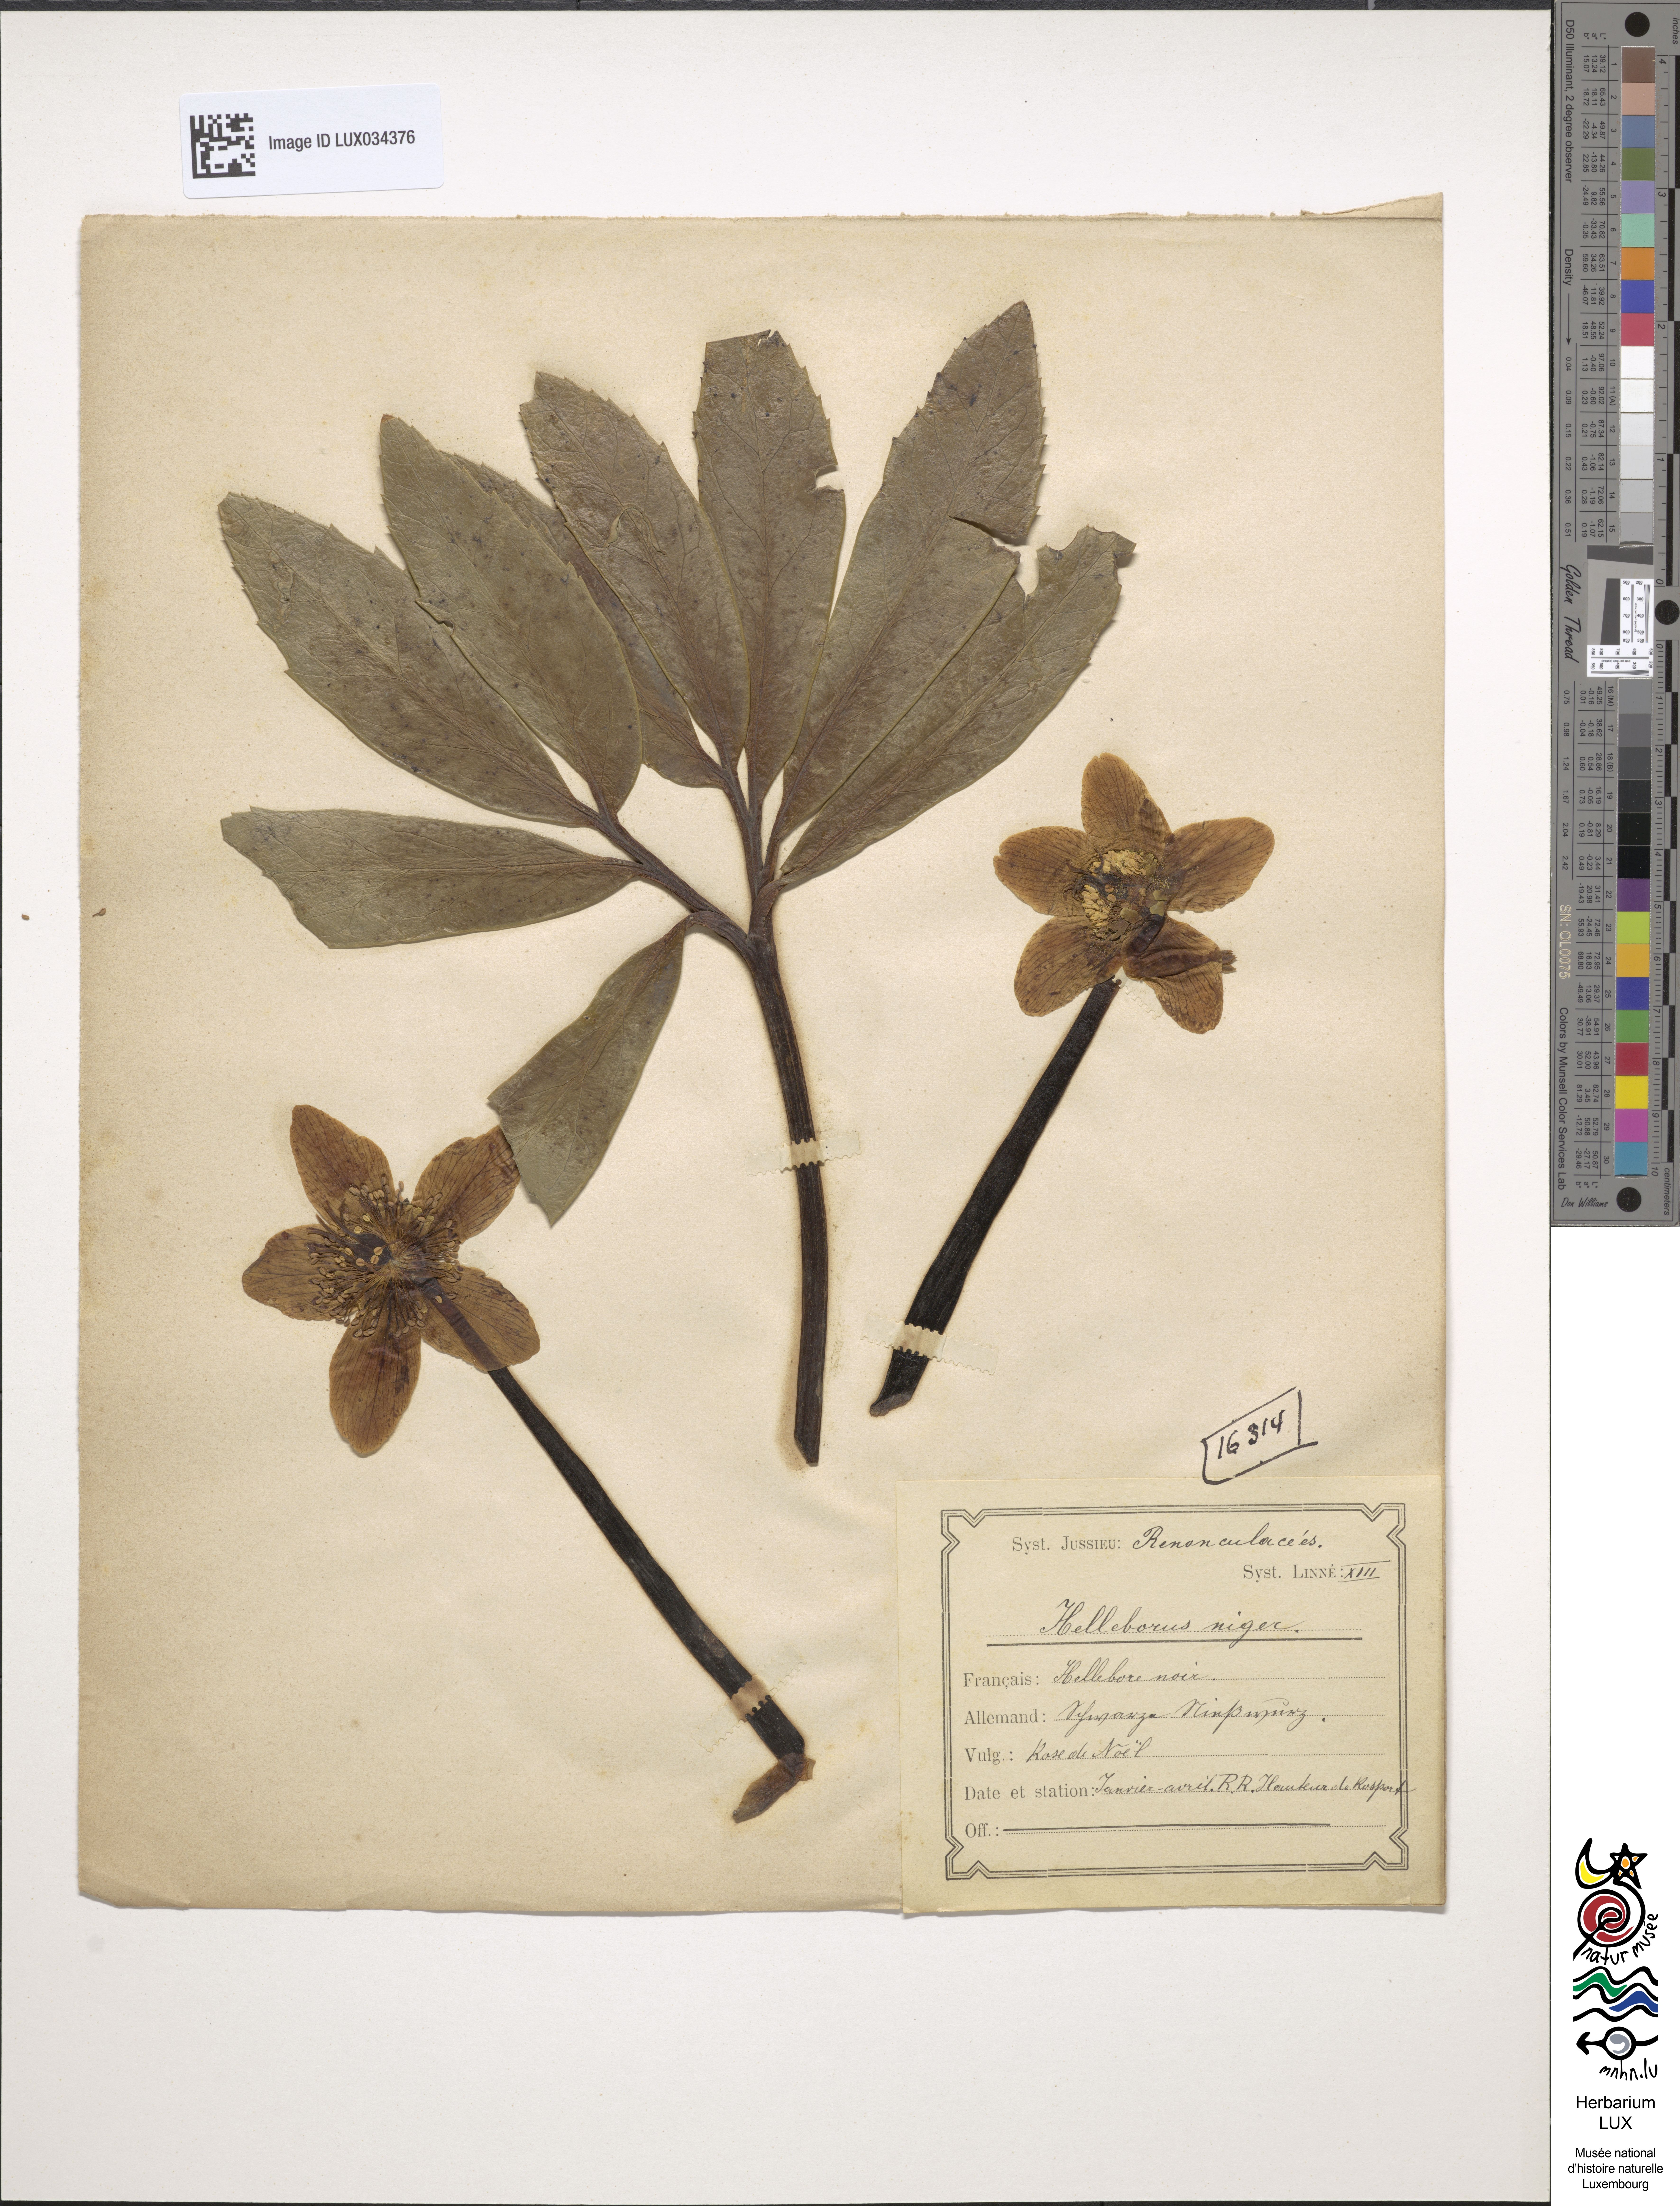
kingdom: Plantae
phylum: Tracheophyta
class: Magnoliopsida
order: Ranunculales
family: Ranunculaceae
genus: Helleborus
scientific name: Helleborus niger
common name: Black hellebore
